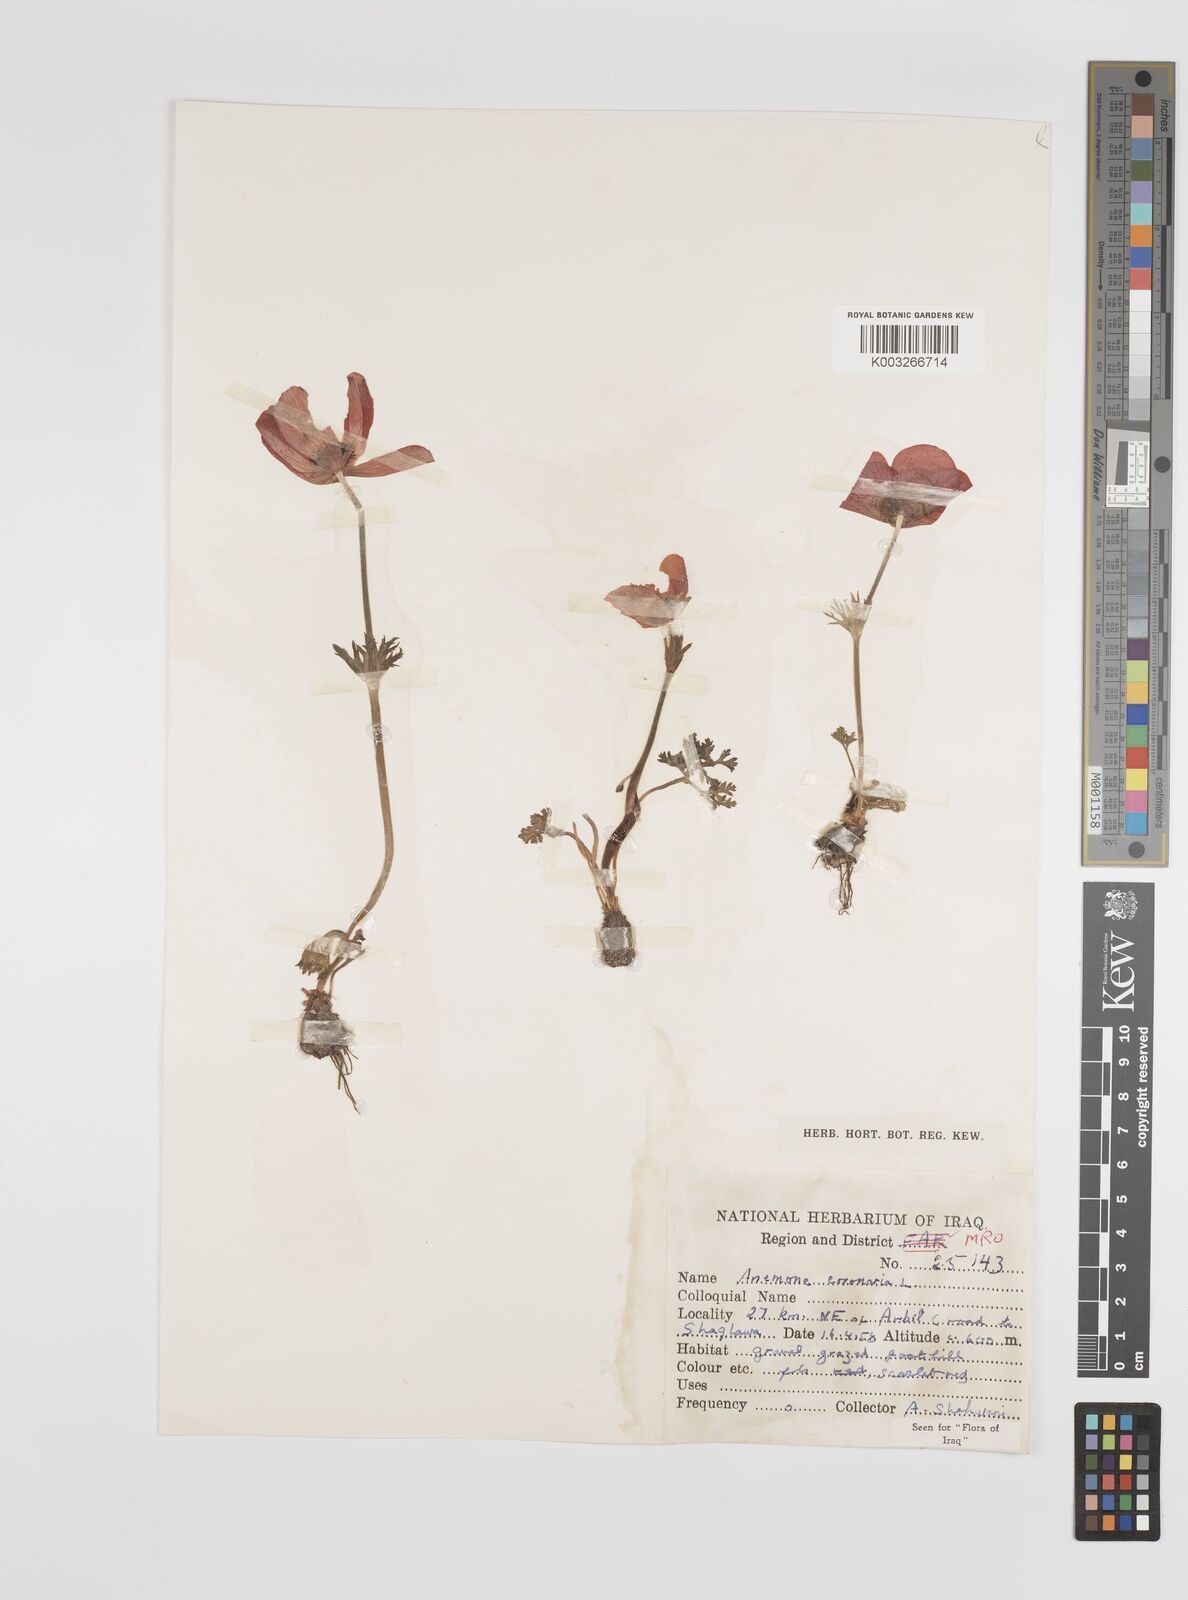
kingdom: Plantae
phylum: Tracheophyta
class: Magnoliopsida
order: Ranunculales
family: Ranunculaceae
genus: Anemone
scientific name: Anemone coronaria
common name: Poppy anemone
